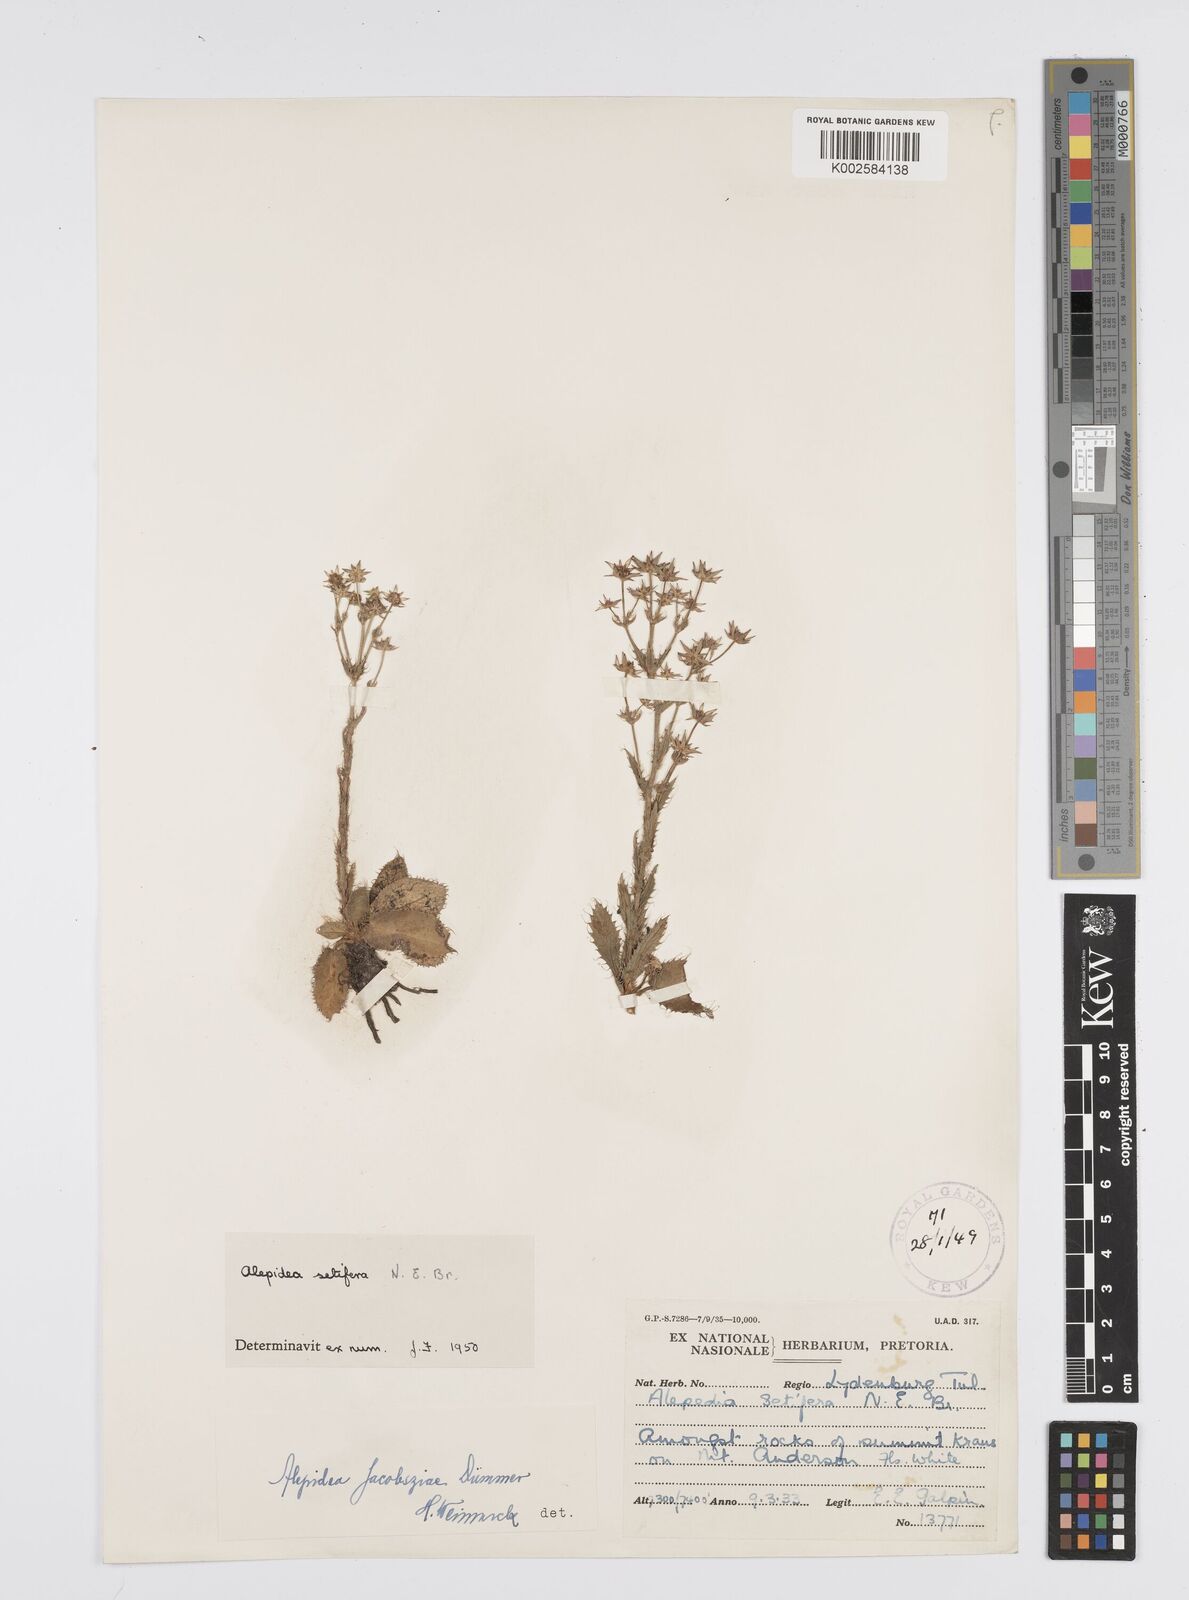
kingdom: Plantae
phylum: Tracheophyta
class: Magnoliopsida
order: Apiales
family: Apiaceae
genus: Alepidea
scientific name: Alepidea setifera
